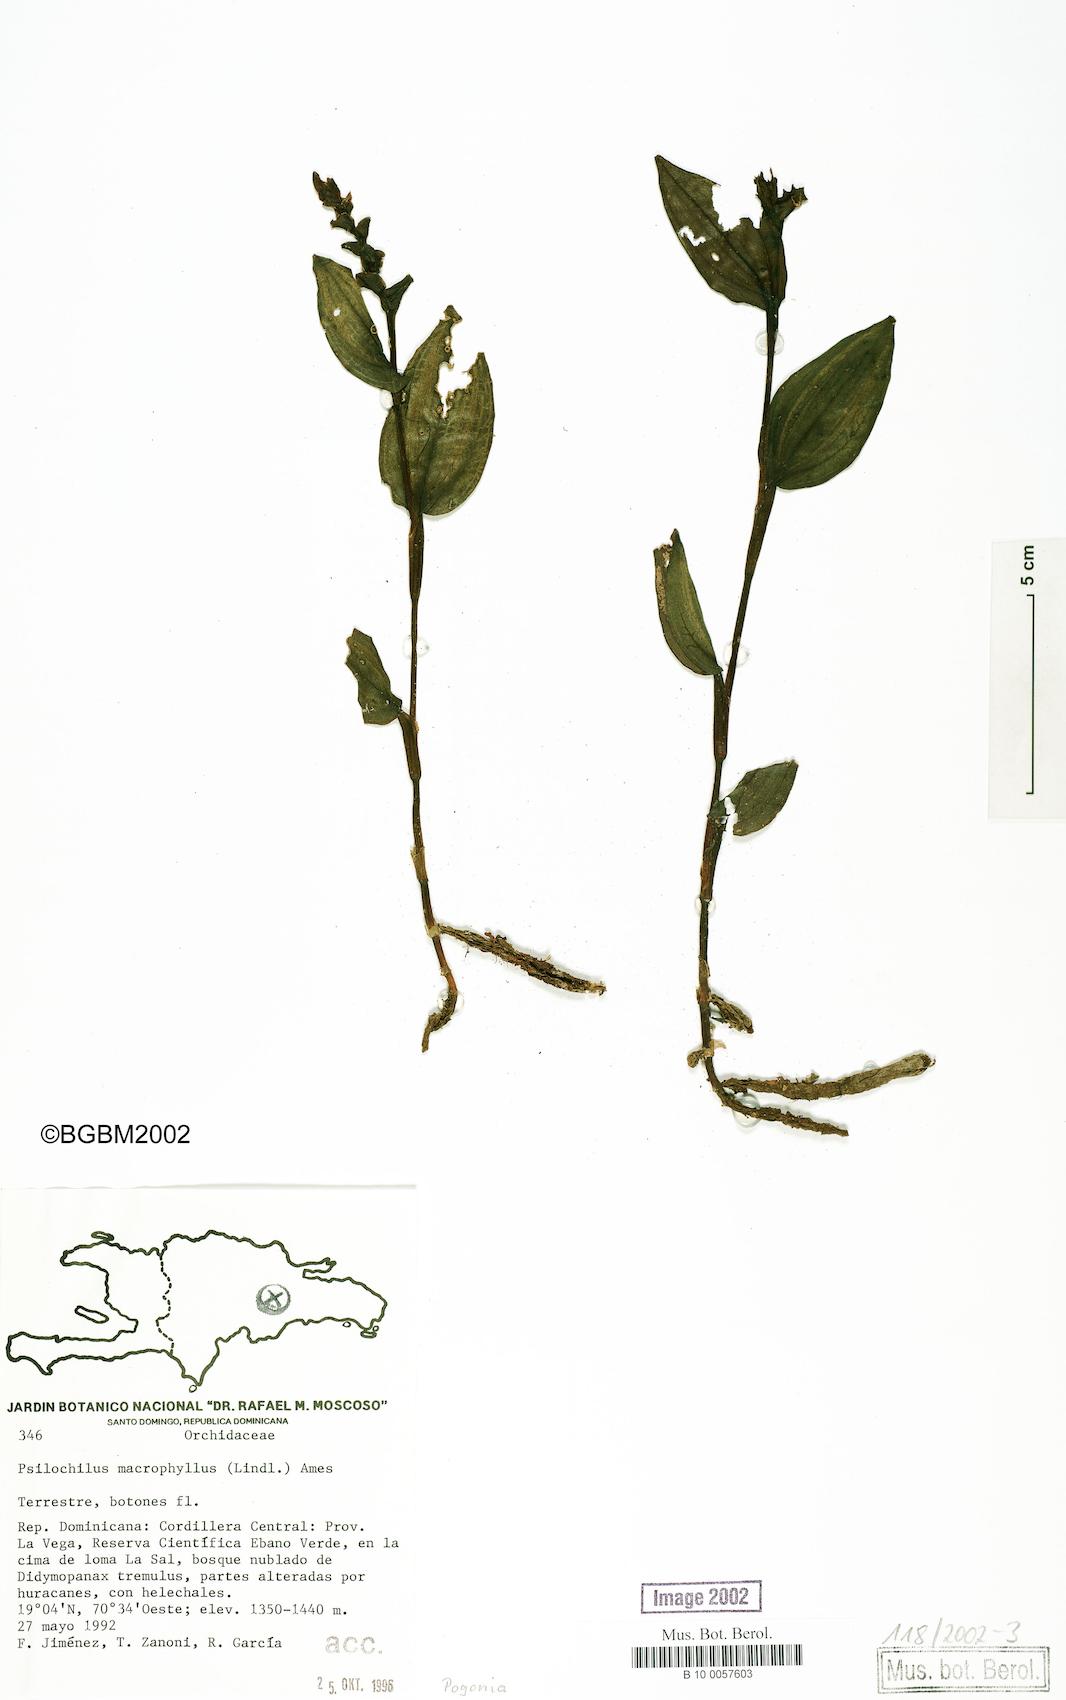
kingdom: Plantae
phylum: Tracheophyta
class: Liliopsida
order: Asparagales
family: Orchidaceae
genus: Pogonia
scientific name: Pogonia
